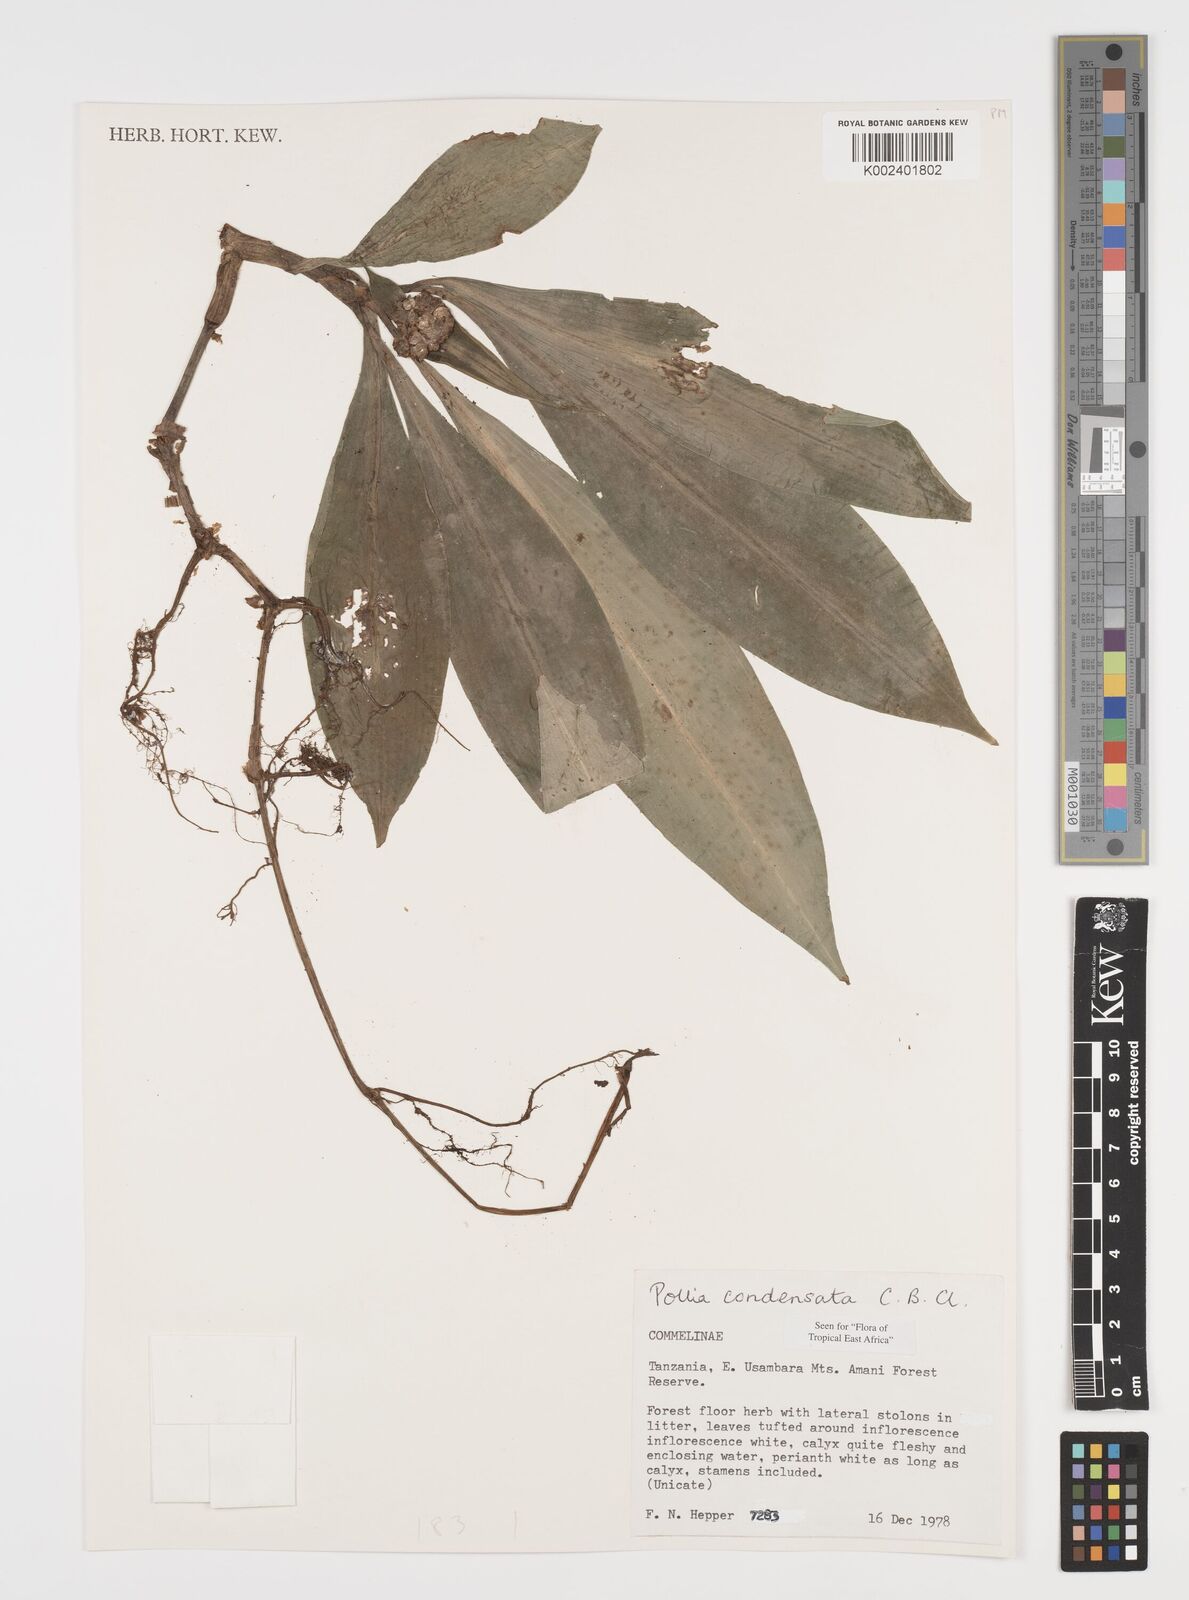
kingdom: Plantae
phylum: Tracheophyta
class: Liliopsida
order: Commelinales
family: Commelinaceae
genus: Pollia
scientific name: Pollia condensata
